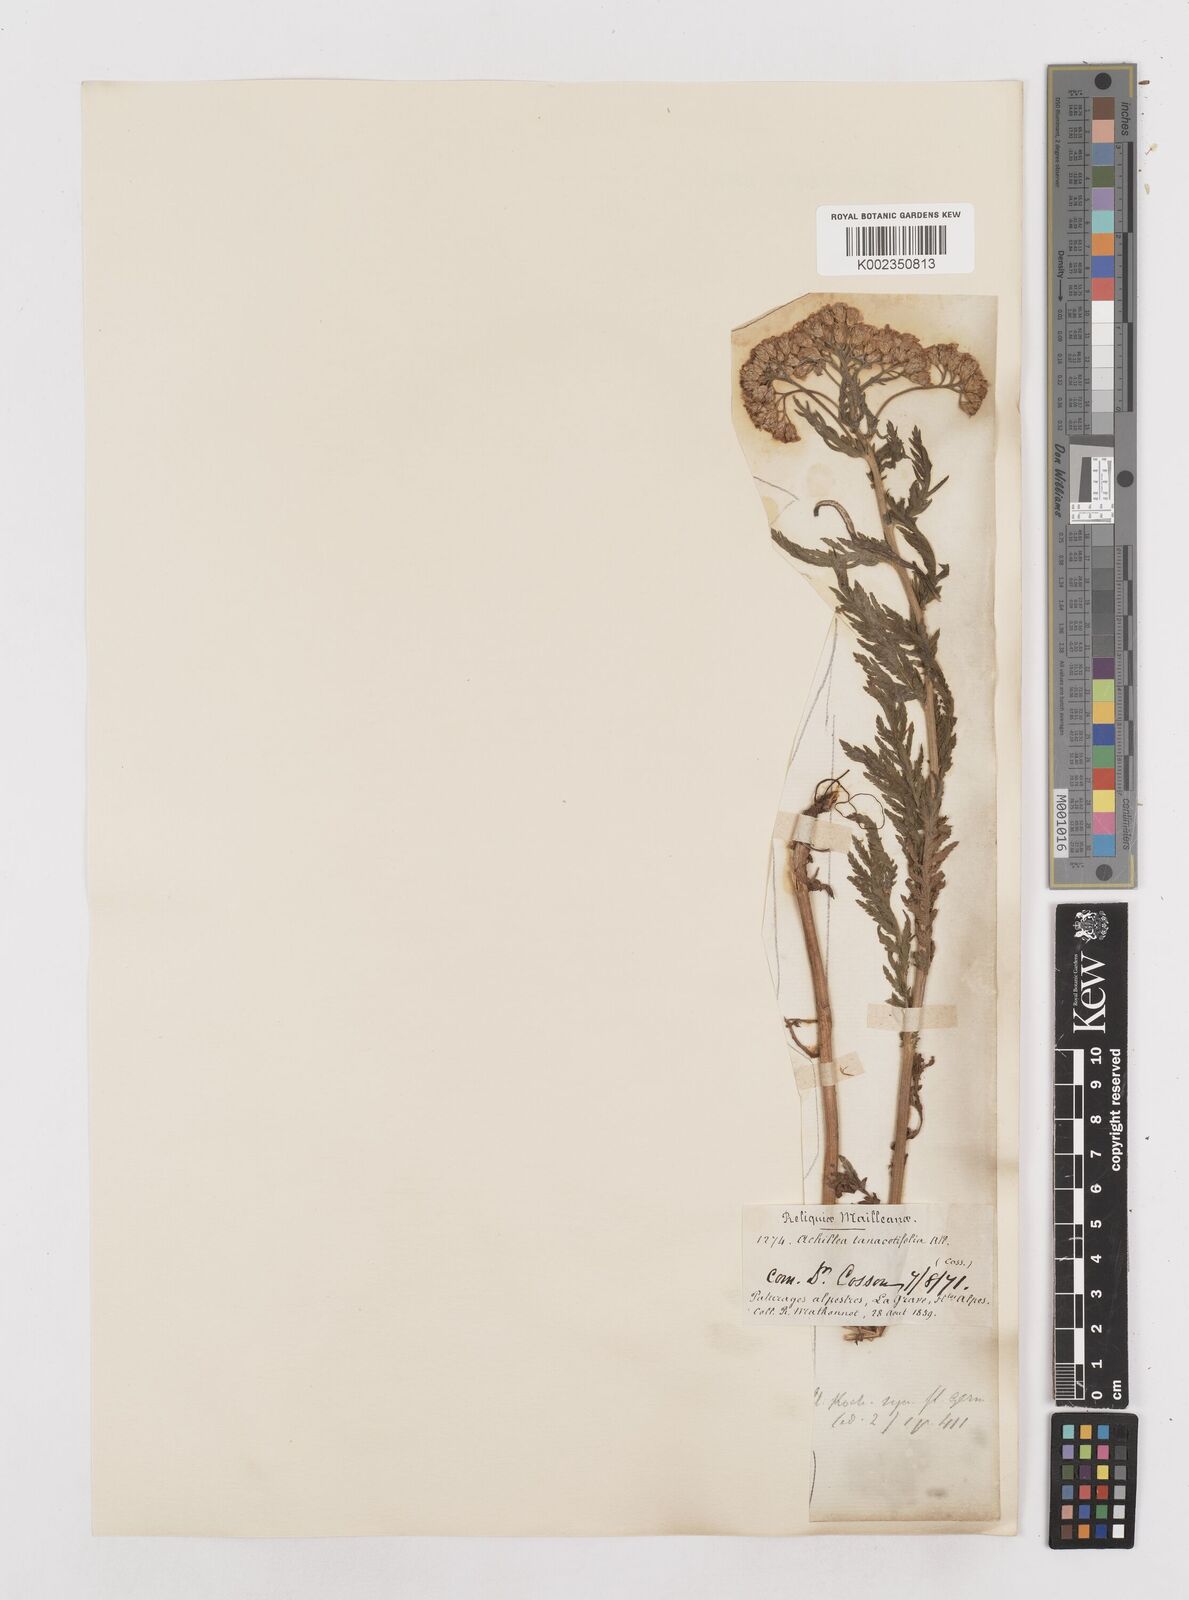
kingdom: Plantae
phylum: Tracheophyta
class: Magnoliopsida
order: Asterales
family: Asteraceae
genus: Achillea
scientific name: Achillea distans
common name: Tall yarrow
